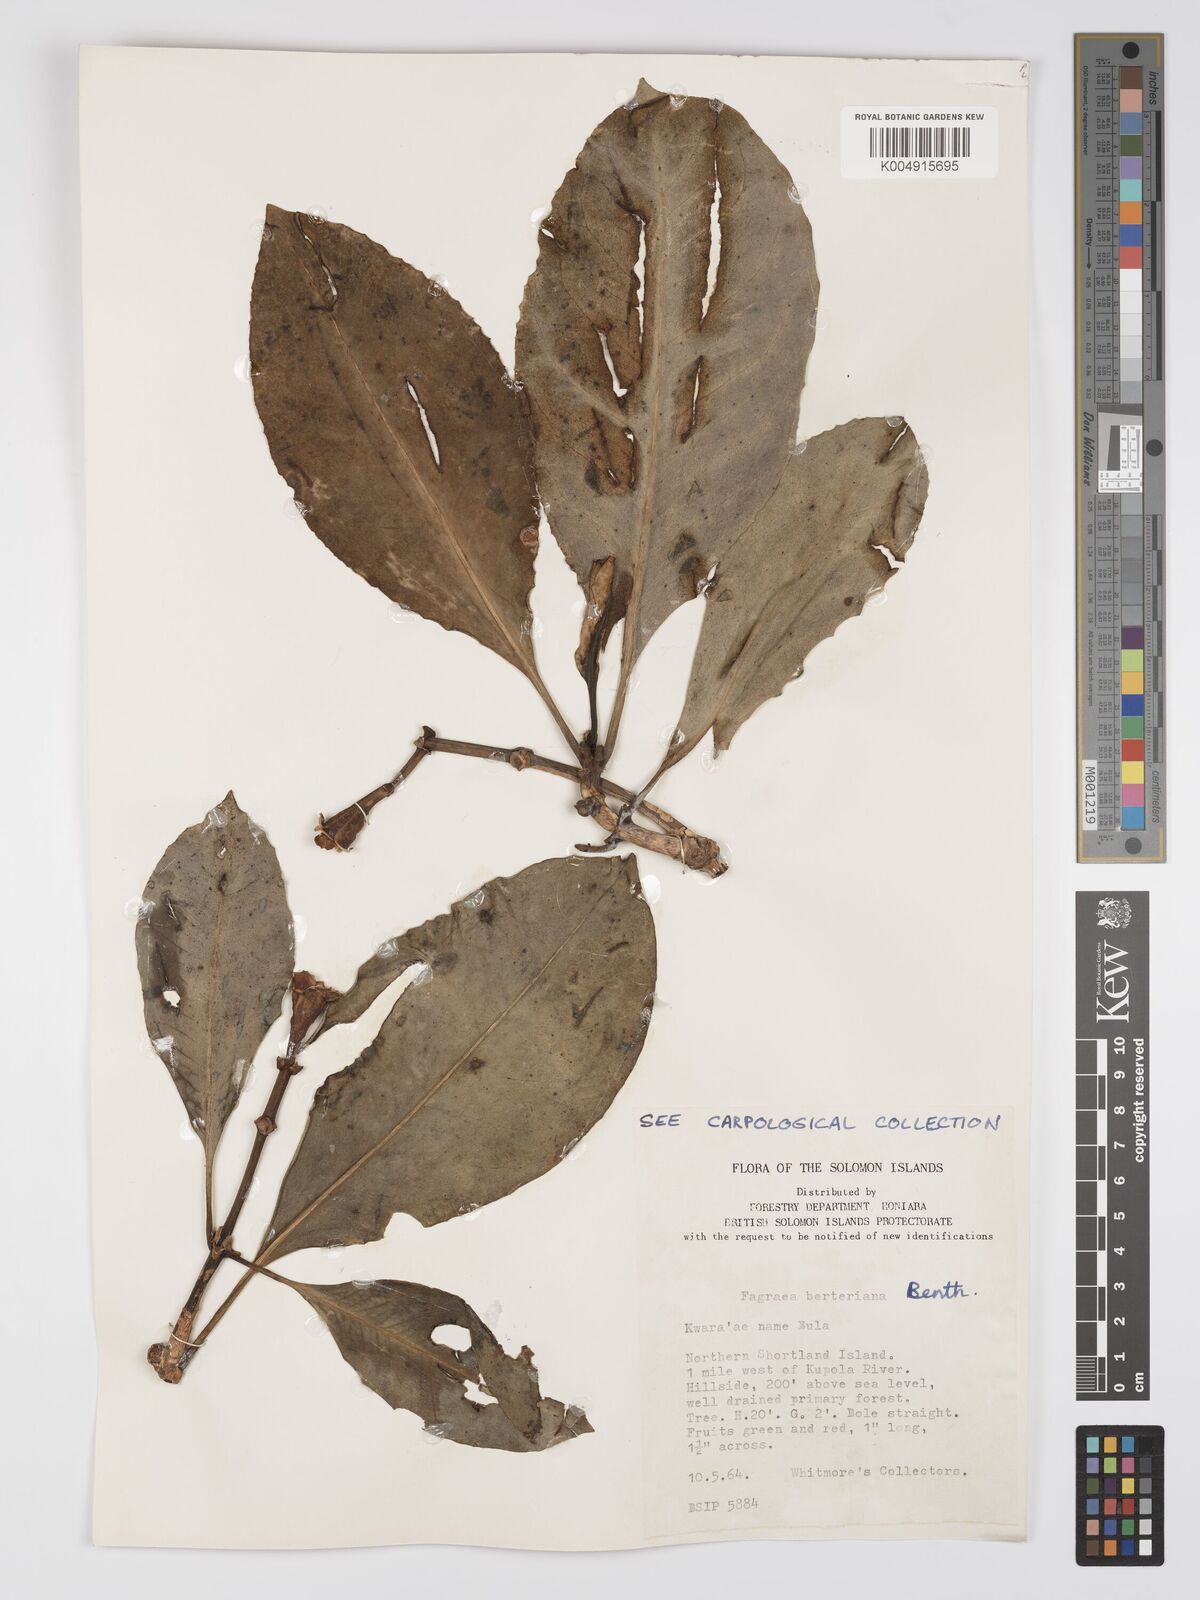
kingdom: Plantae
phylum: Tracheophyta
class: Magnoliopsida
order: Gentianales
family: Gentianaceae
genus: Fagraea
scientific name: Fagraea berteroana
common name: Cape jitta
